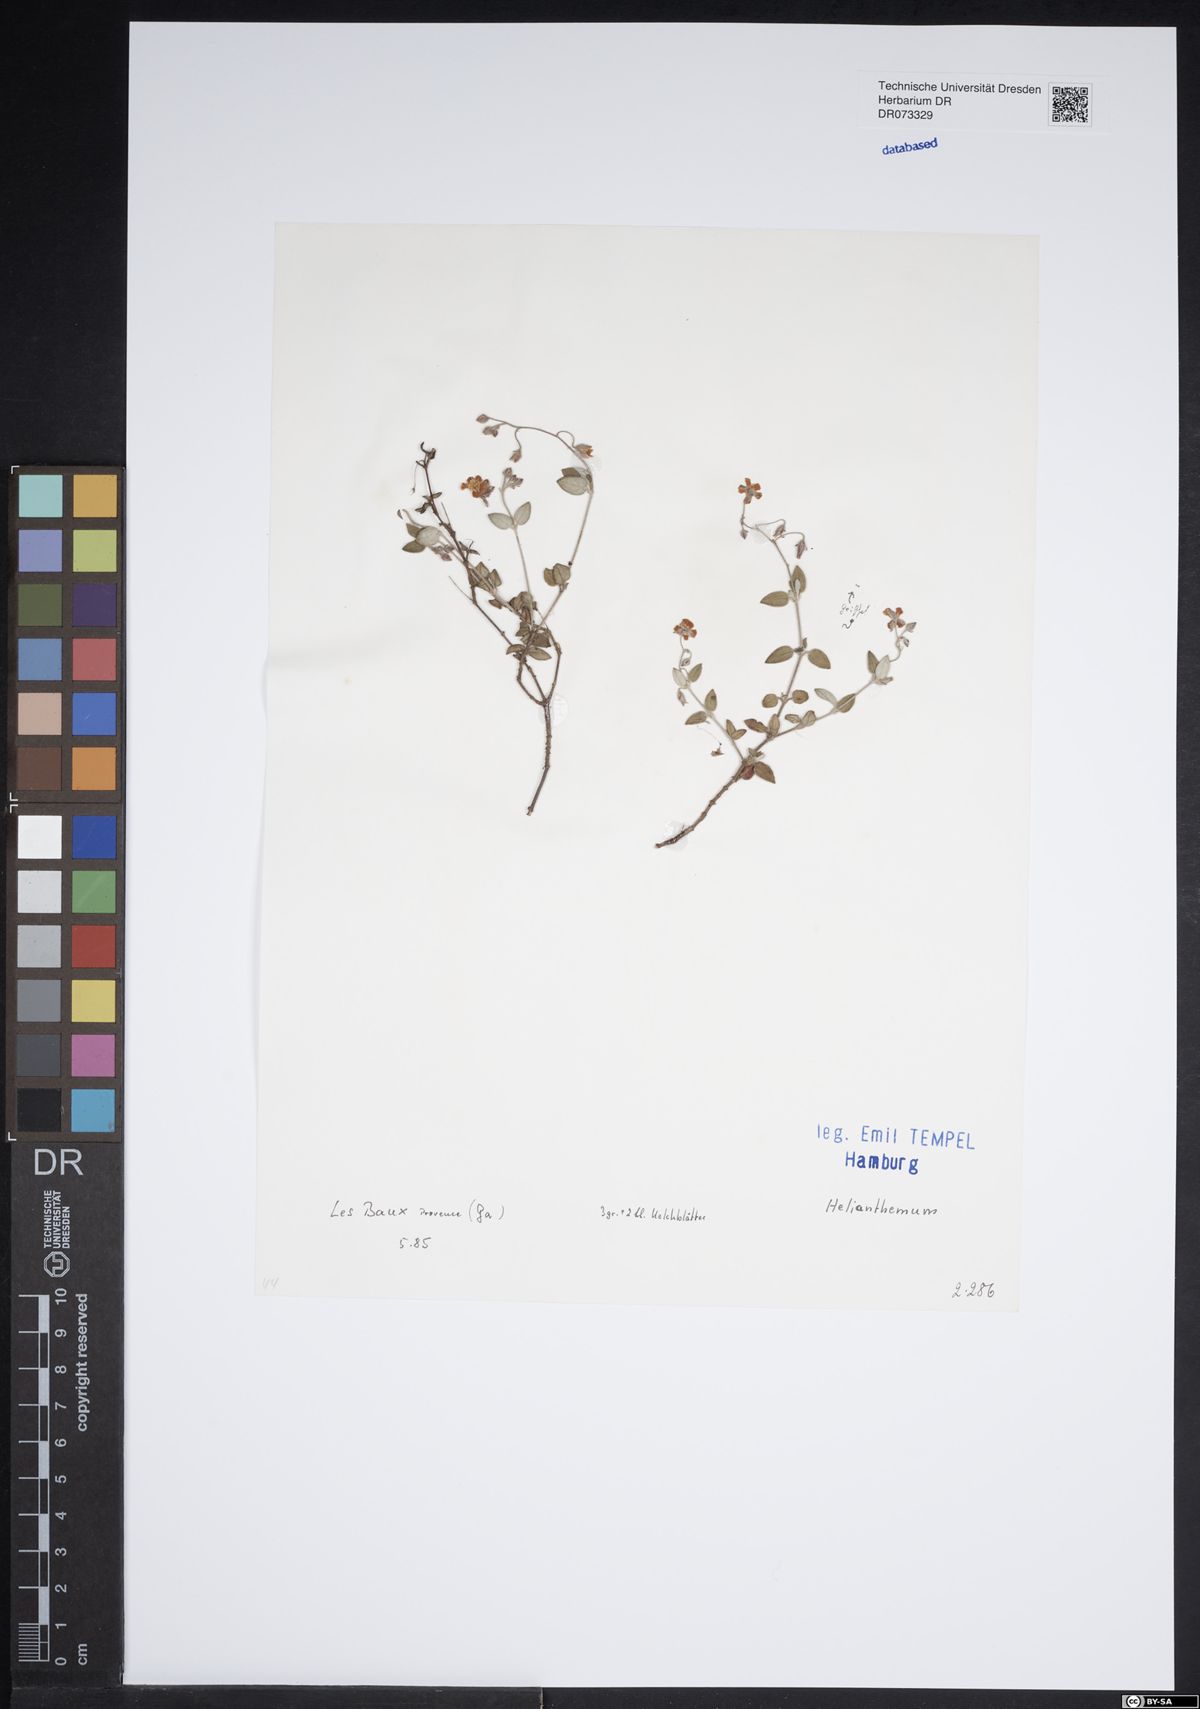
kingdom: Plantae
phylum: Tracheophyta
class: Magnoliopsida
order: Malvales
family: Cistaceae
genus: Helianthemum
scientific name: Helianthemum
